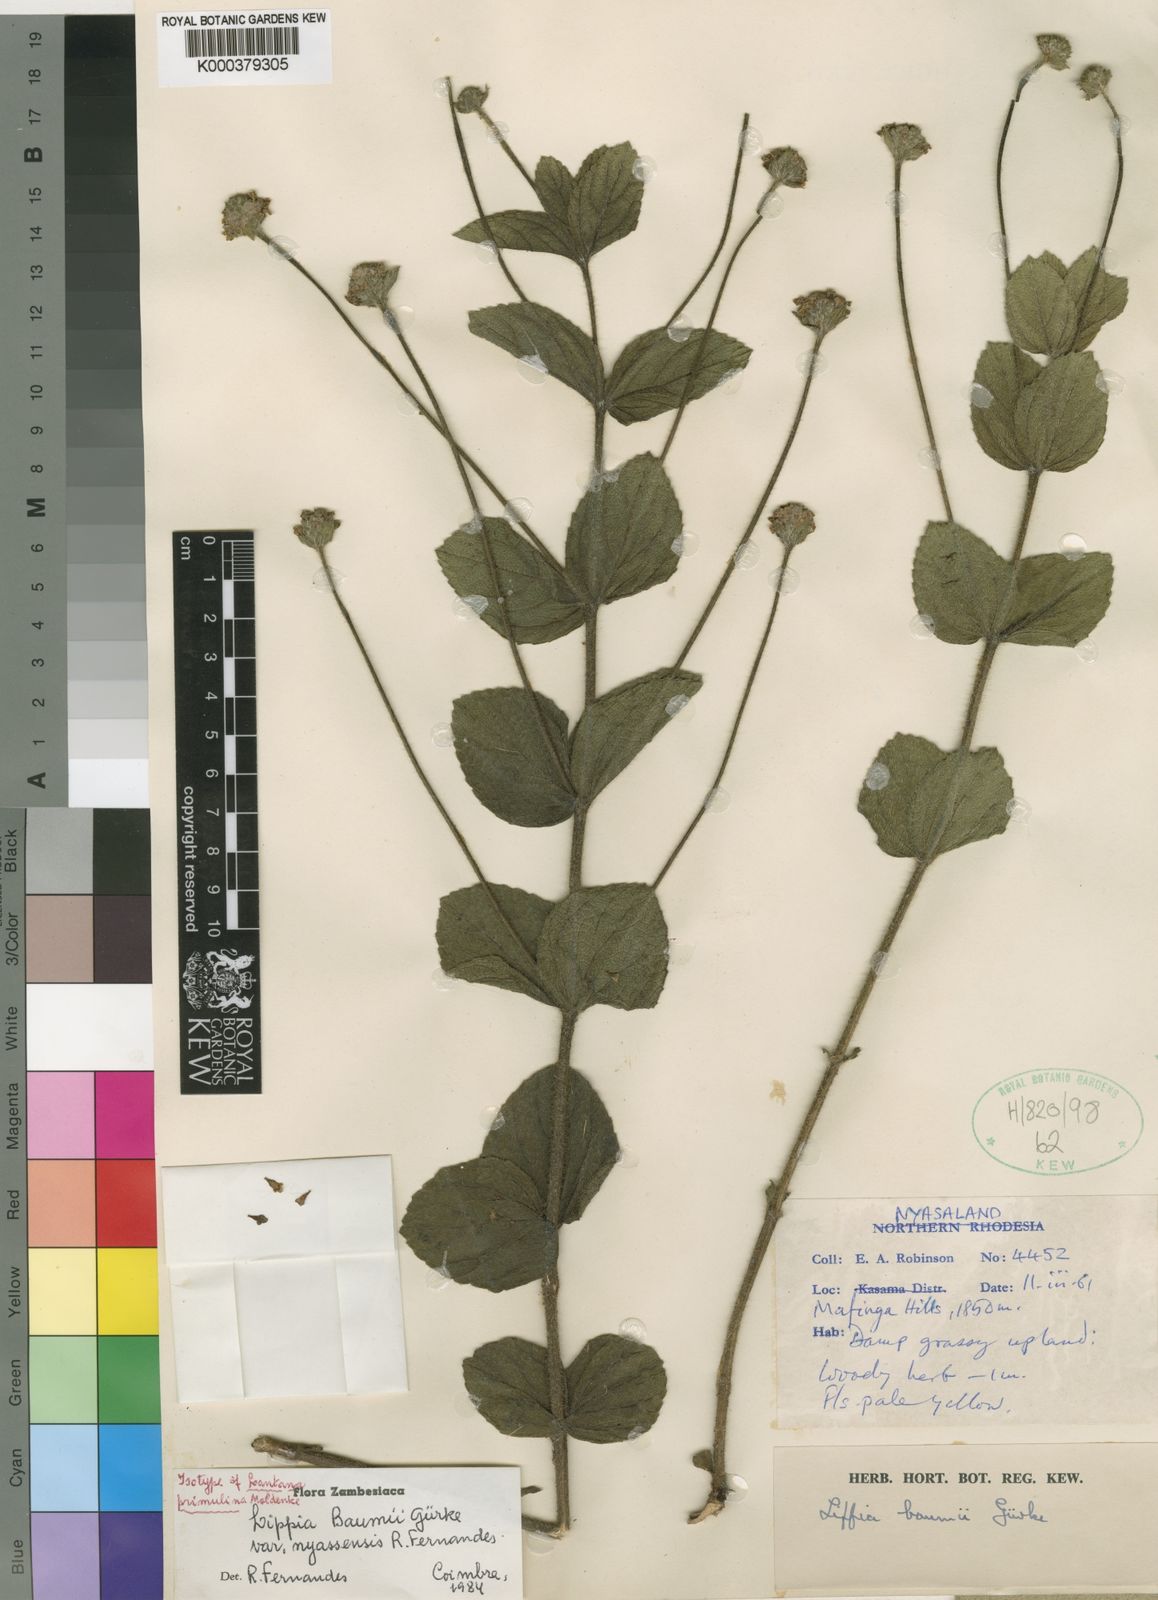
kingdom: Plantae
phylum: Tracheophyta
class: Magnoliopsida
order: Lamiales
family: Verbenaceae
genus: Lippia
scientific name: Lippia
